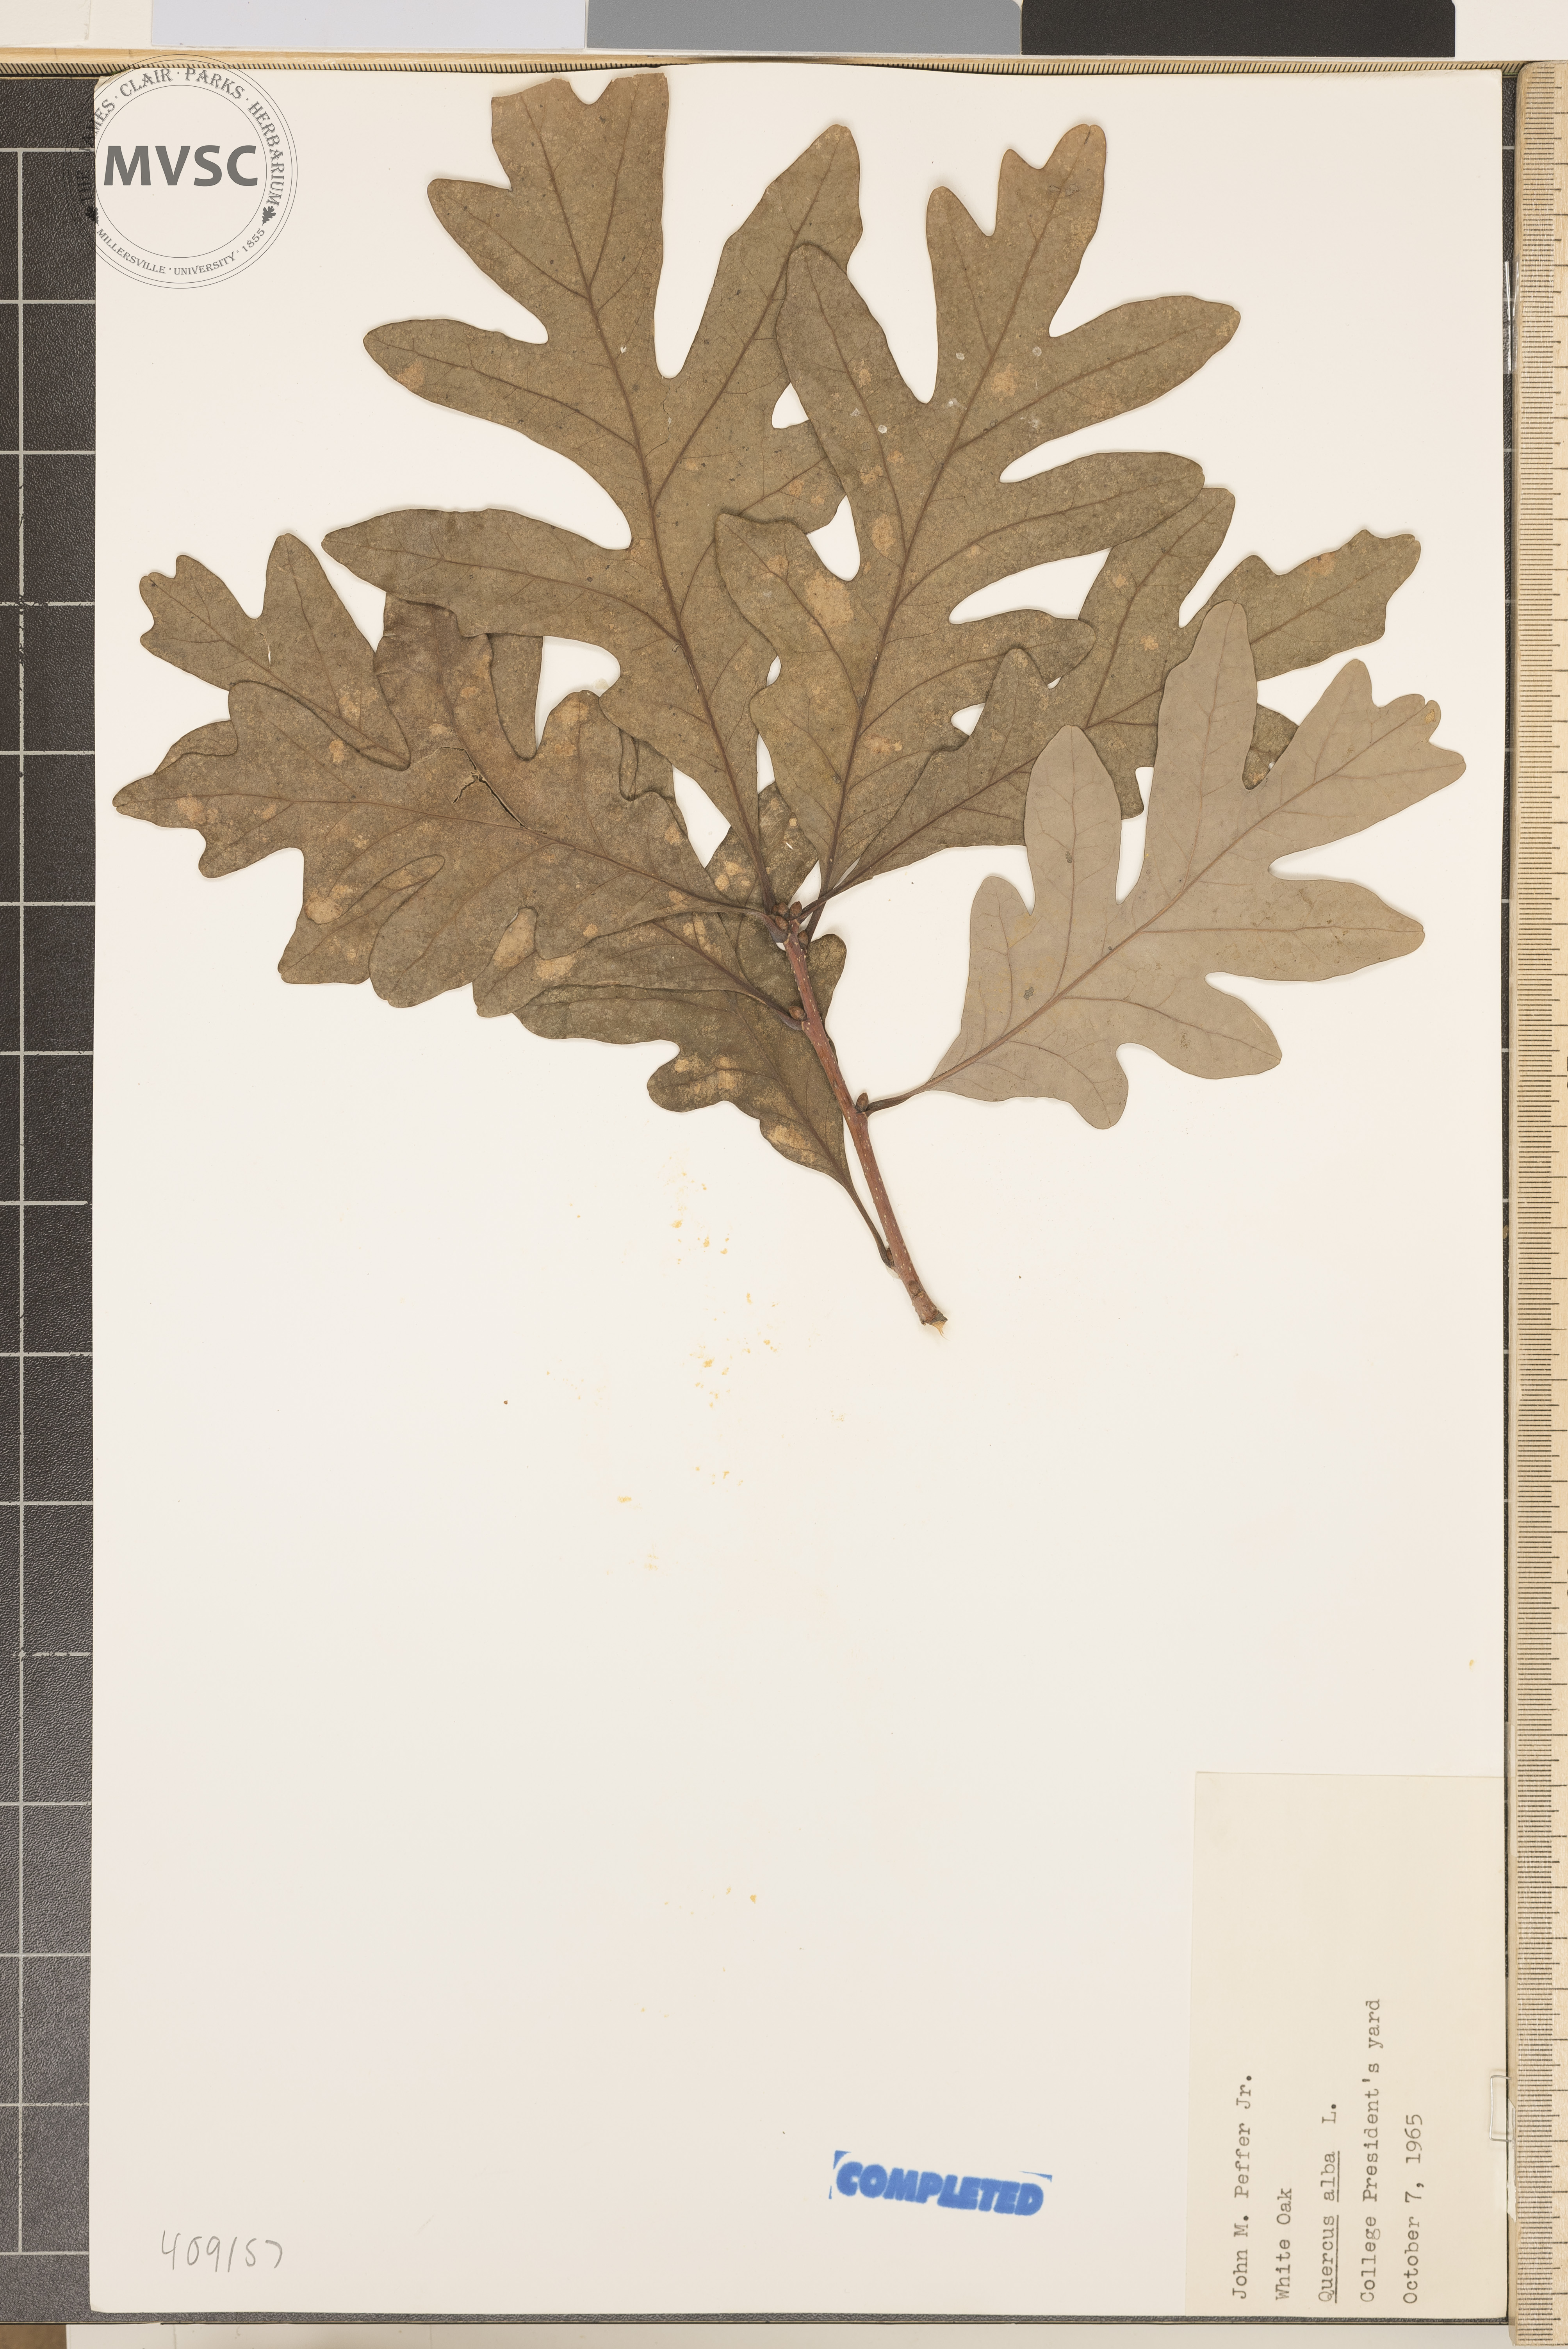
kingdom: Plantae
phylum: Tracheophyta
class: Magnoliopsida
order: Fagales
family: Fagaceae
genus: Quercus
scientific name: Quercus alba
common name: White oak
